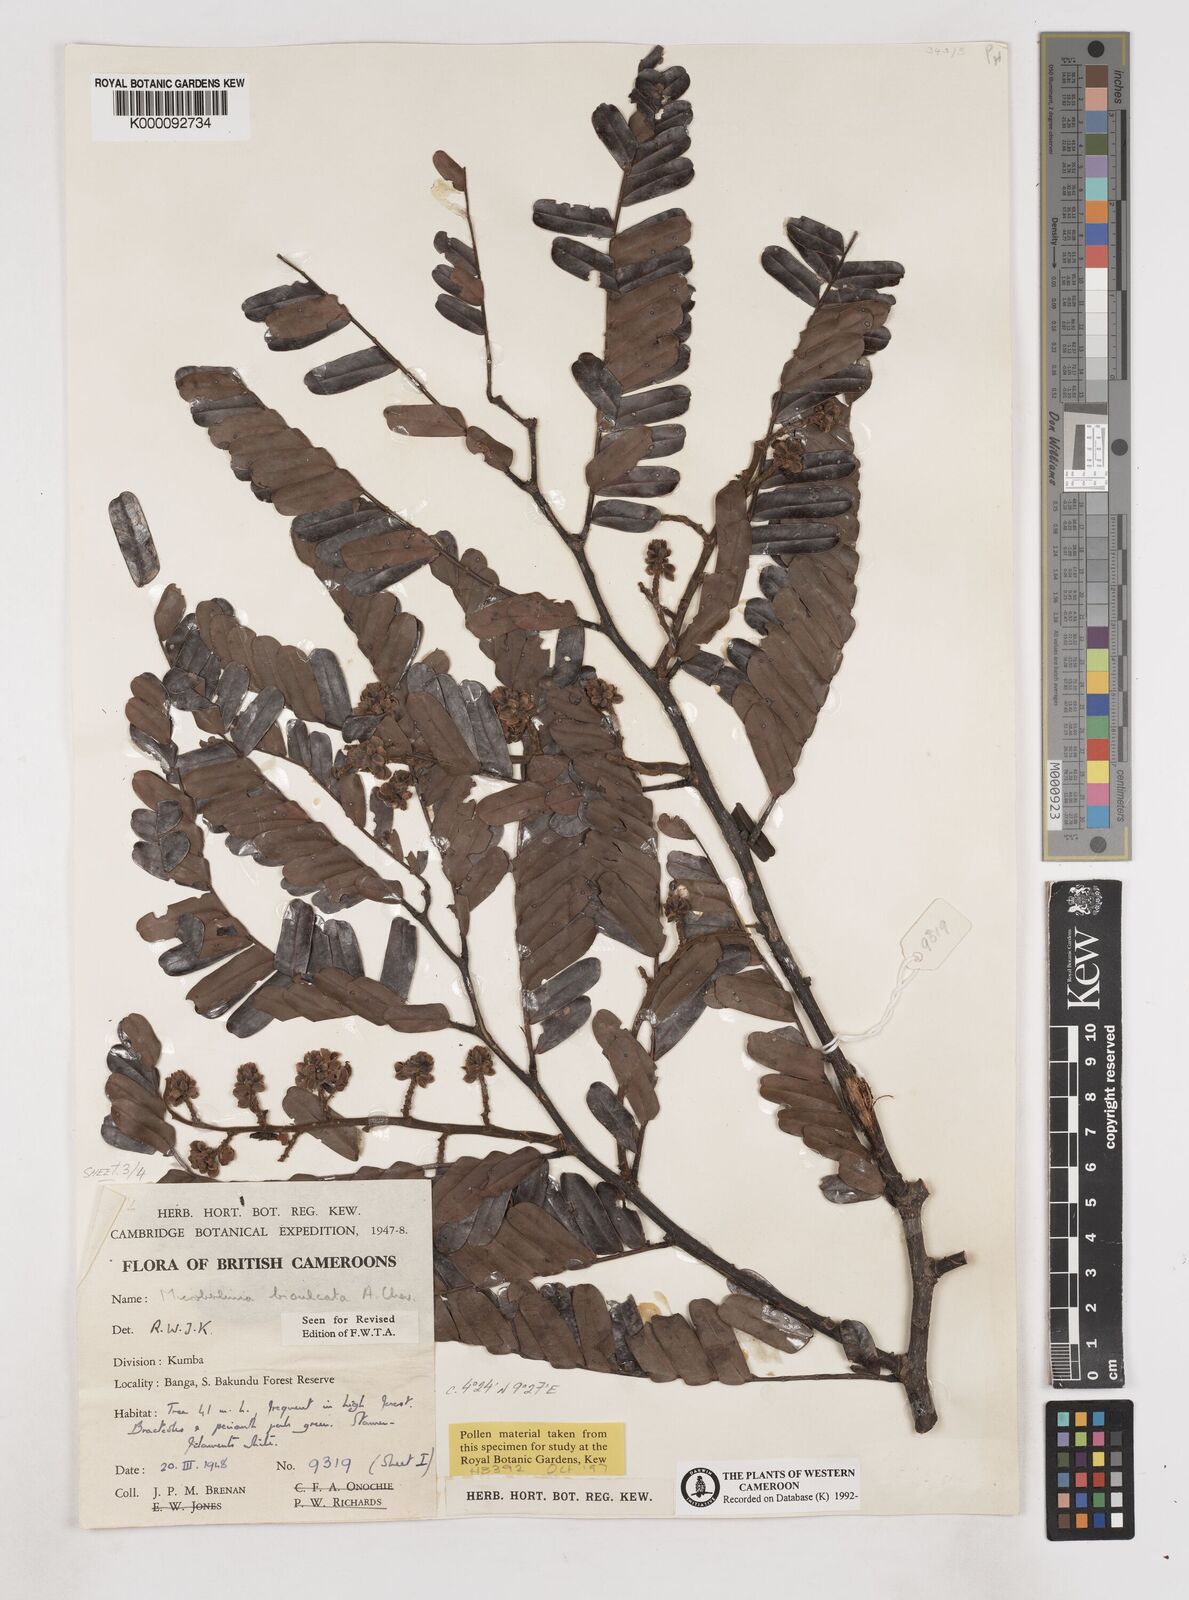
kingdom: Plantae
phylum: Tracheophyta
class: Magnoliopsida
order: Fabales
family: Fabaceae
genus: Microberlinia
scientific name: Microberlinia bisulcata
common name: Zingana
